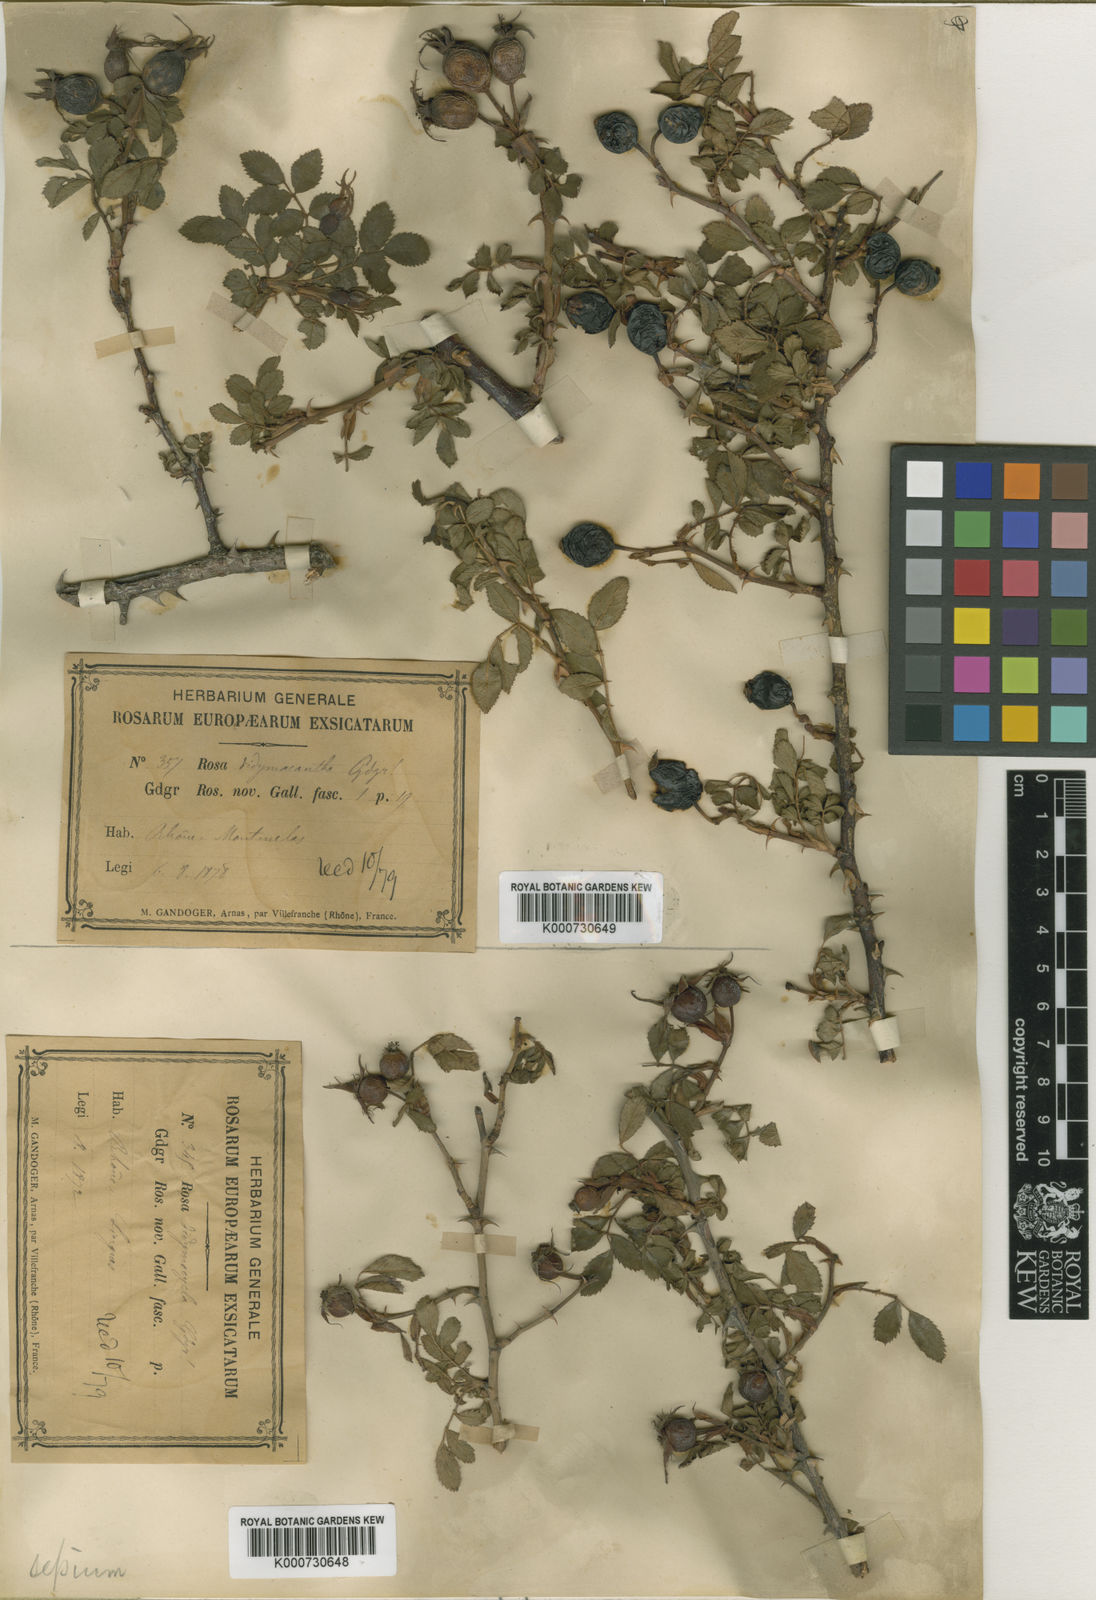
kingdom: Plantae
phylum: Tracheophyta
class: Magnoliopsida
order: Rosales
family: Rosaceae
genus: Rosa
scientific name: Rosa agrestis
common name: Fieldbriar
